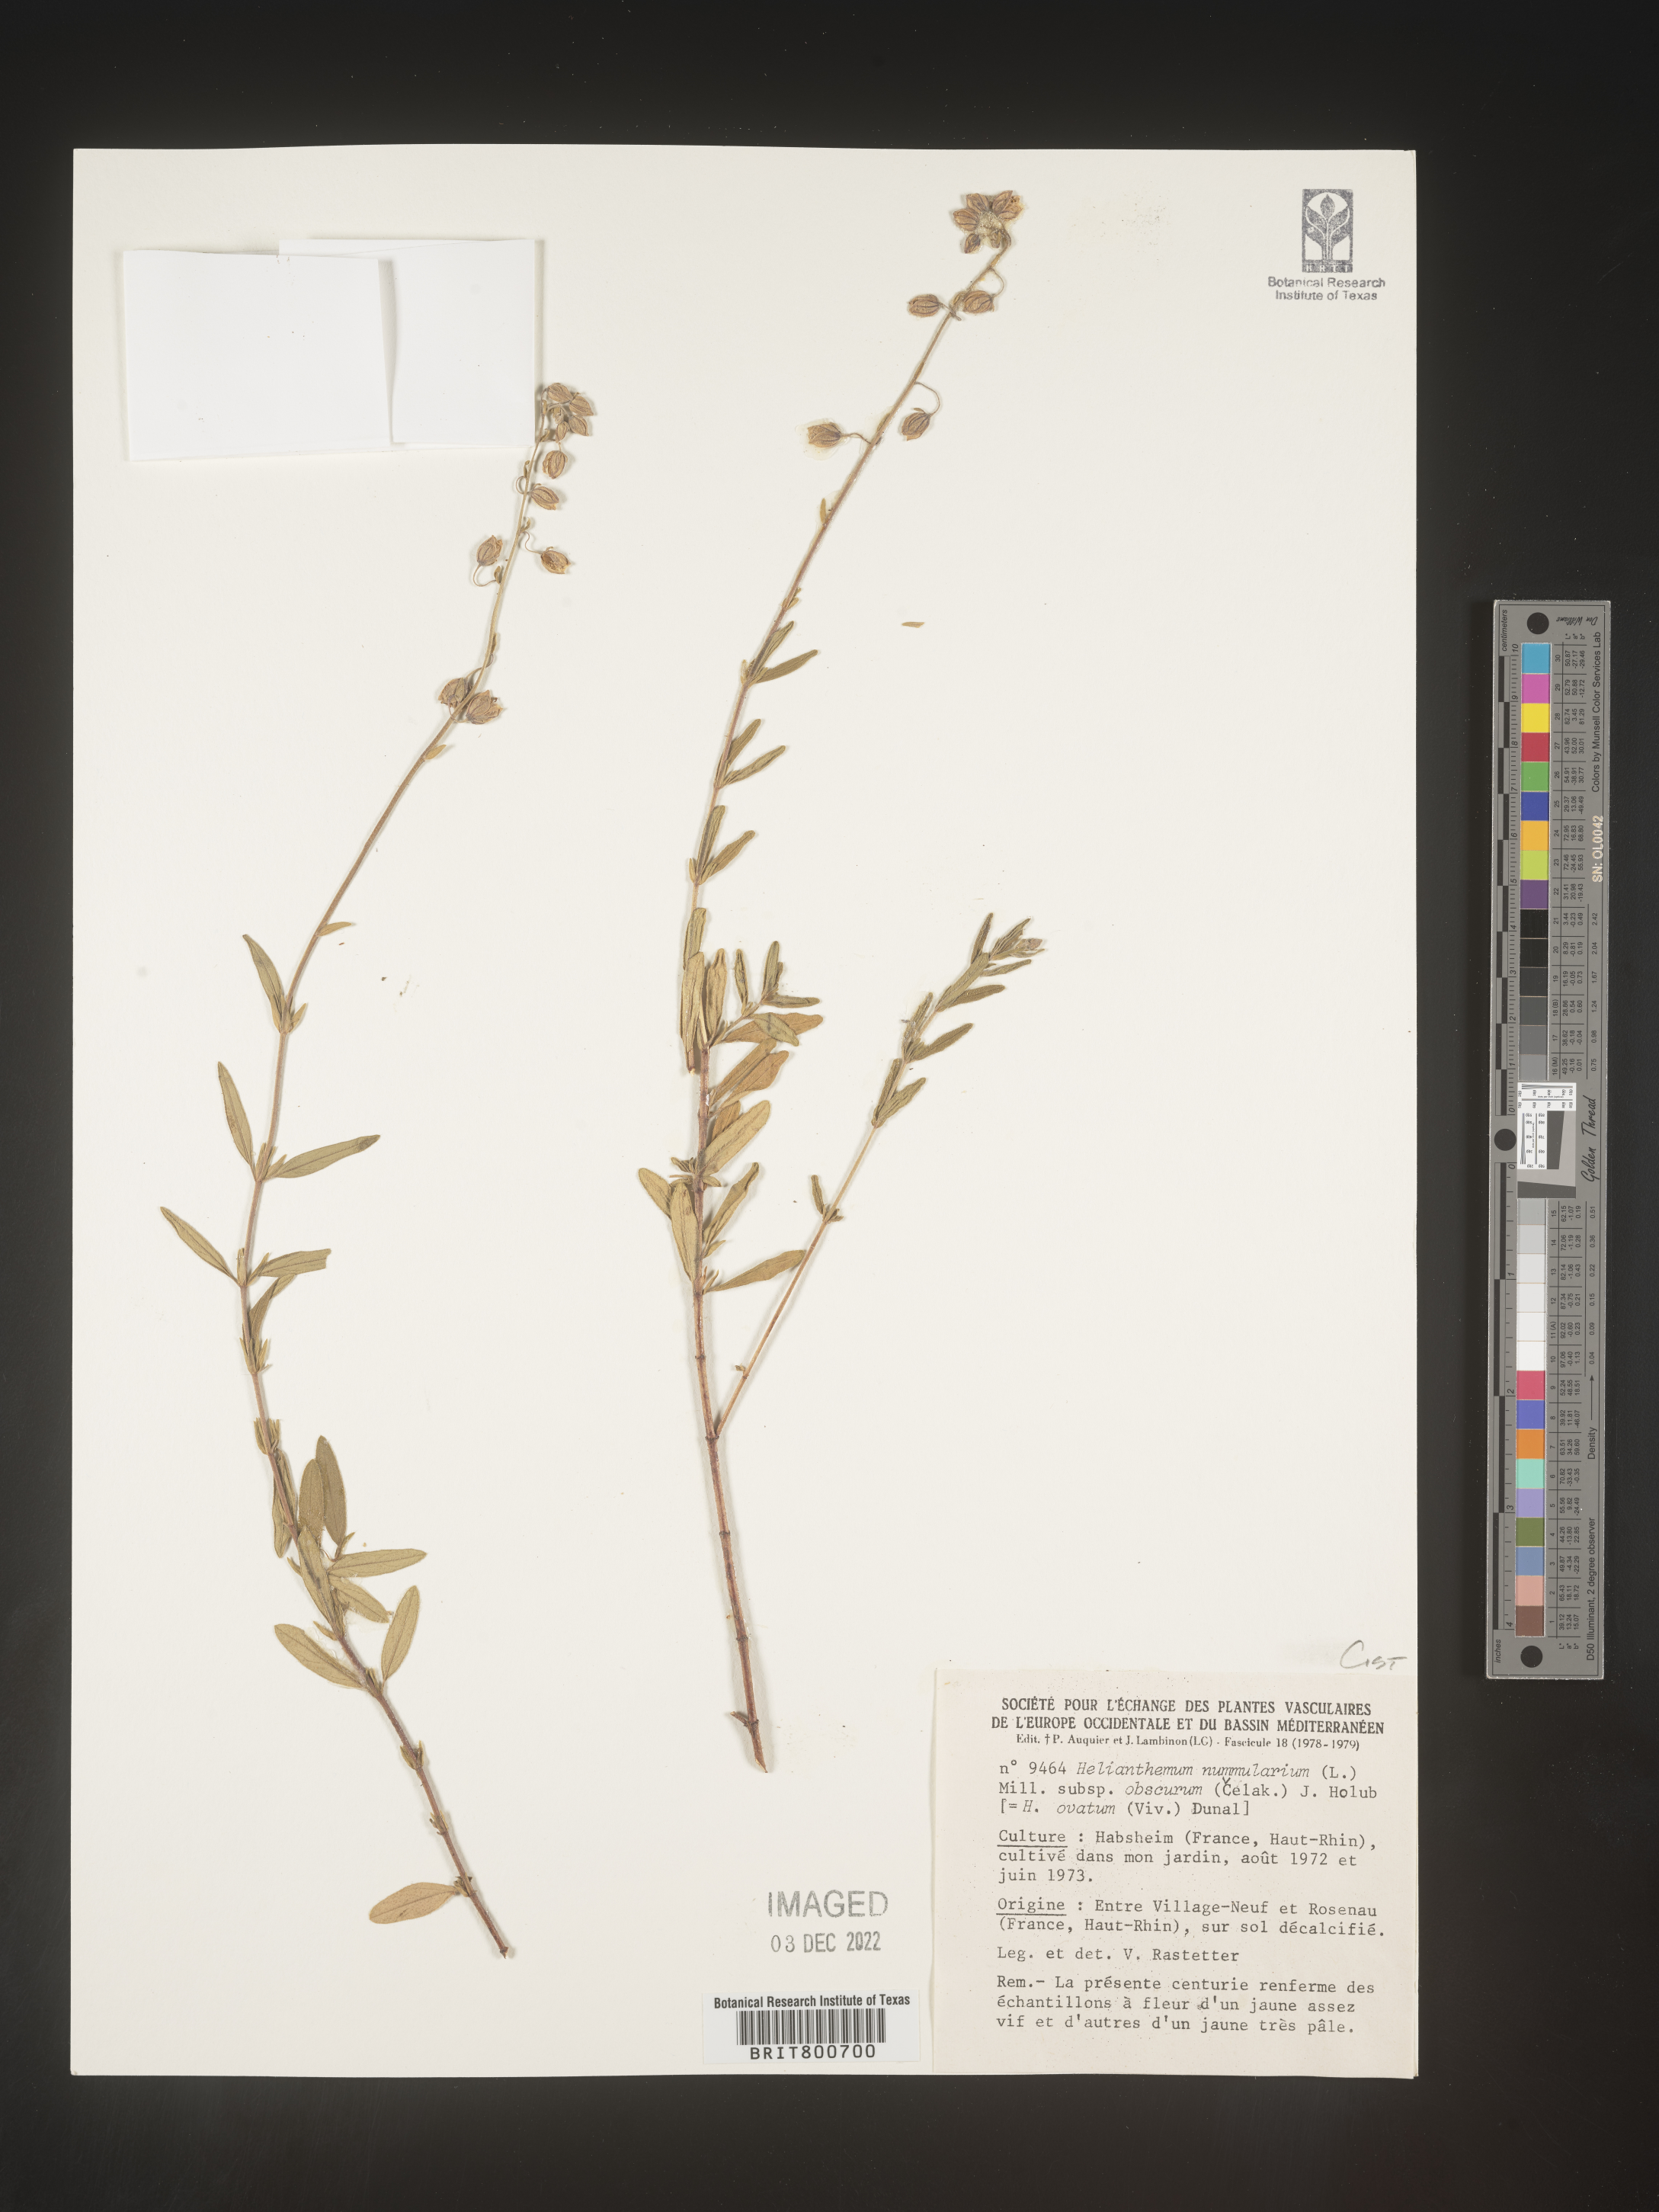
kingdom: Plantae
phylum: Tracheophyta
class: Magnoliopsida
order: Malvales
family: Cistaceae
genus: Helianthemum
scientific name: Helianthemum
